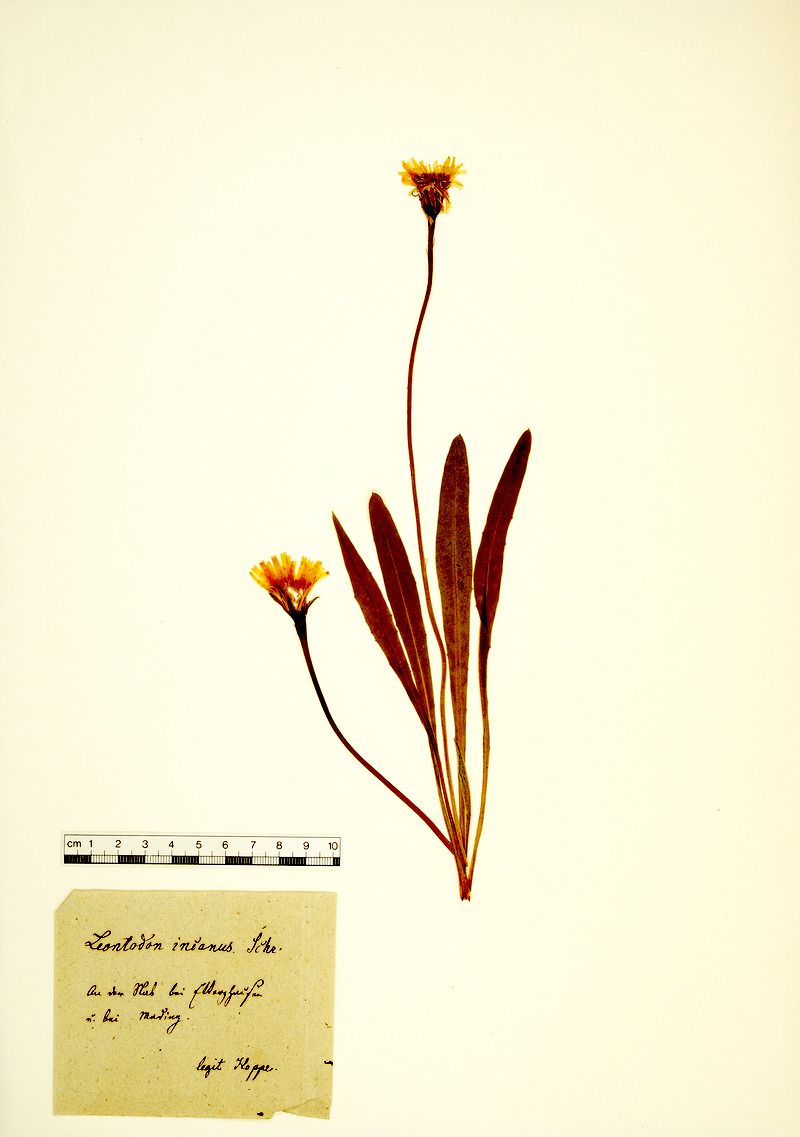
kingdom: Plantae
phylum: Tracheophyta
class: Magnoliopsida
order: Asterales
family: Asteraceae
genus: Leontodon
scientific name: Leontodon incanus
